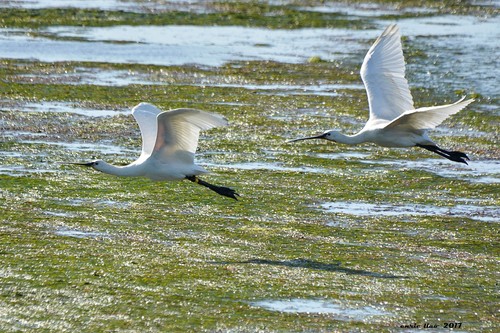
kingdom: Animalia
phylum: Chordata
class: Aves
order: Pelecaniformes
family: Threskiornithidae
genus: Platalea
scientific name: Platalea leucorodia
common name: Eurasian spoonbill
